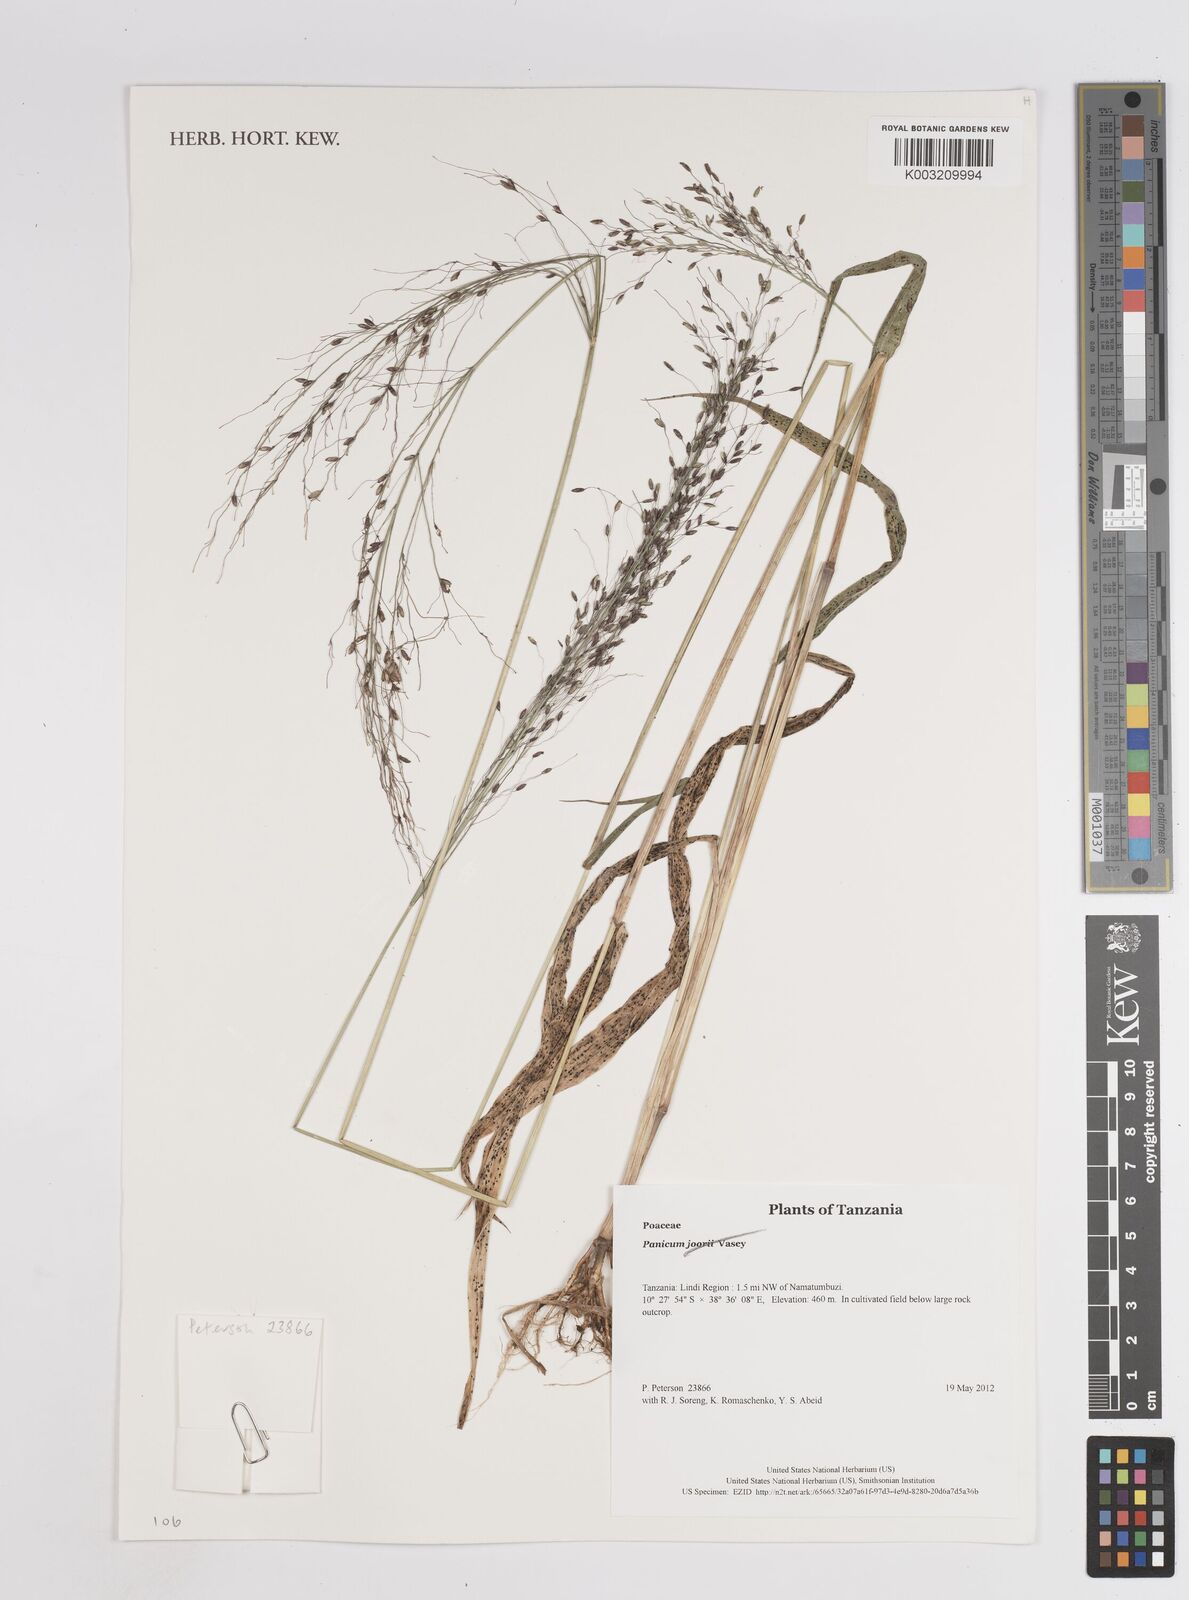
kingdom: Plantae
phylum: Tracheophyta
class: Liliopsida
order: Poales
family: Poaceae
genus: Megathyrsus
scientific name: Megathyrsus maximus
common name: Guineagrass
